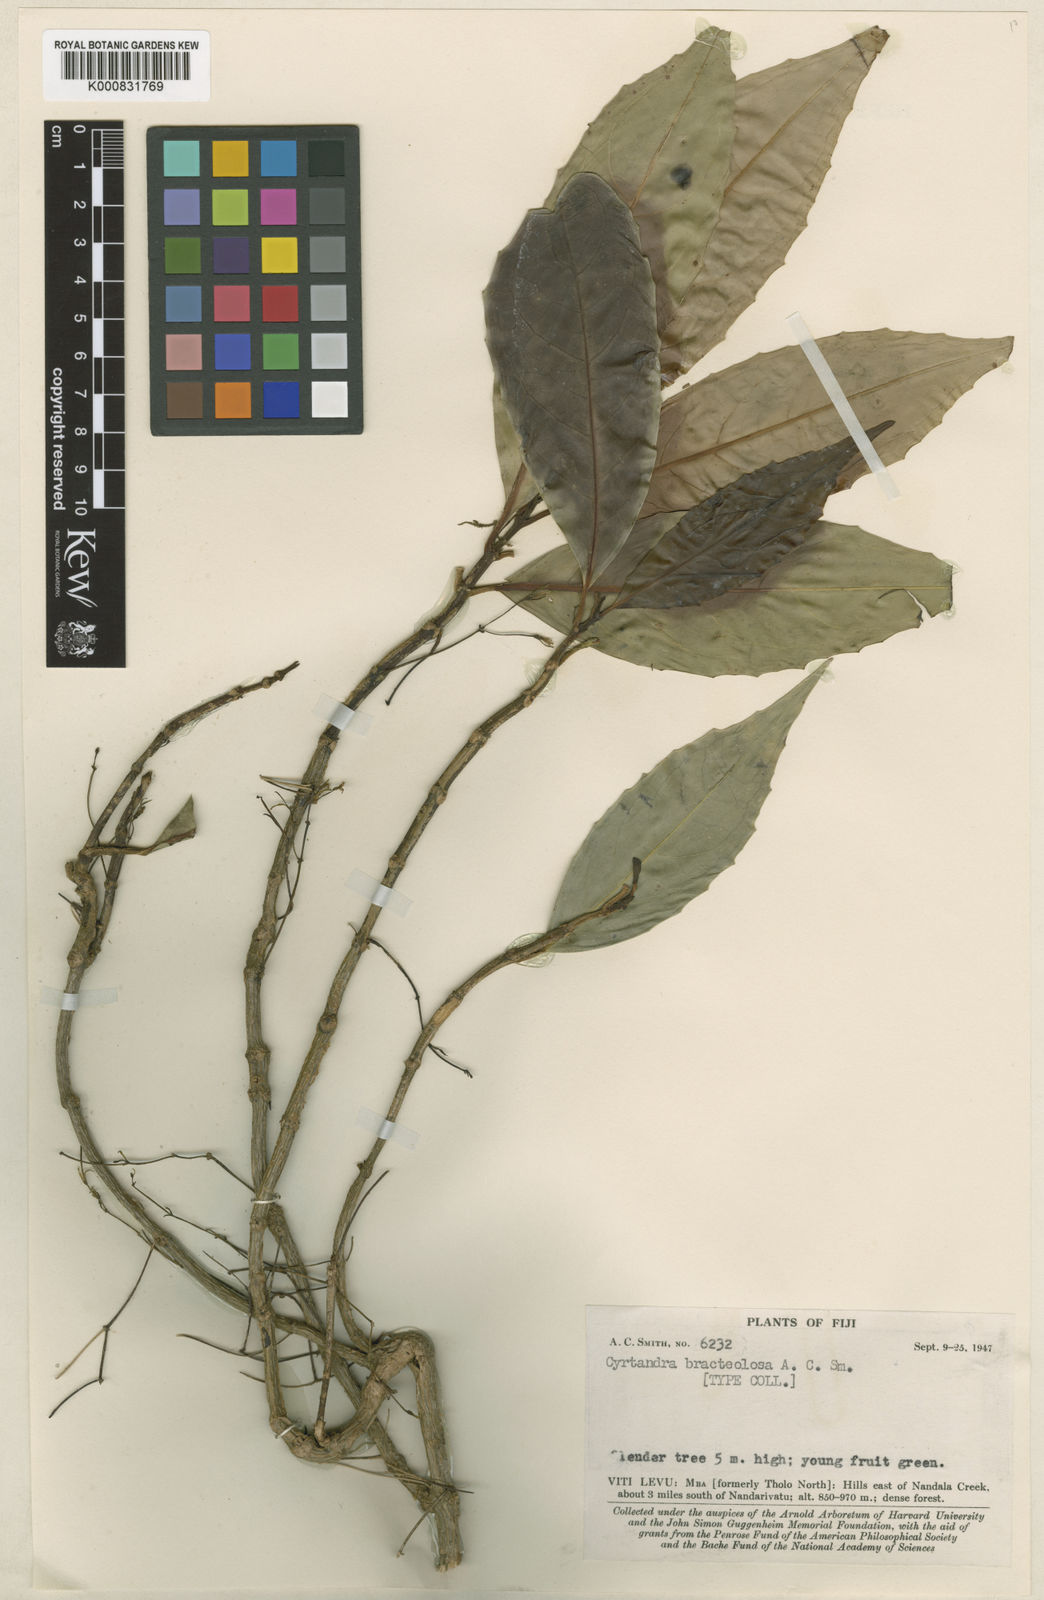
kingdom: Plantae
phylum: Tracheophyta
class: Magnoliopsida
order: Lamiales
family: Gesneriaceae
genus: Cyrtandra
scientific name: Cyrtandra montana
